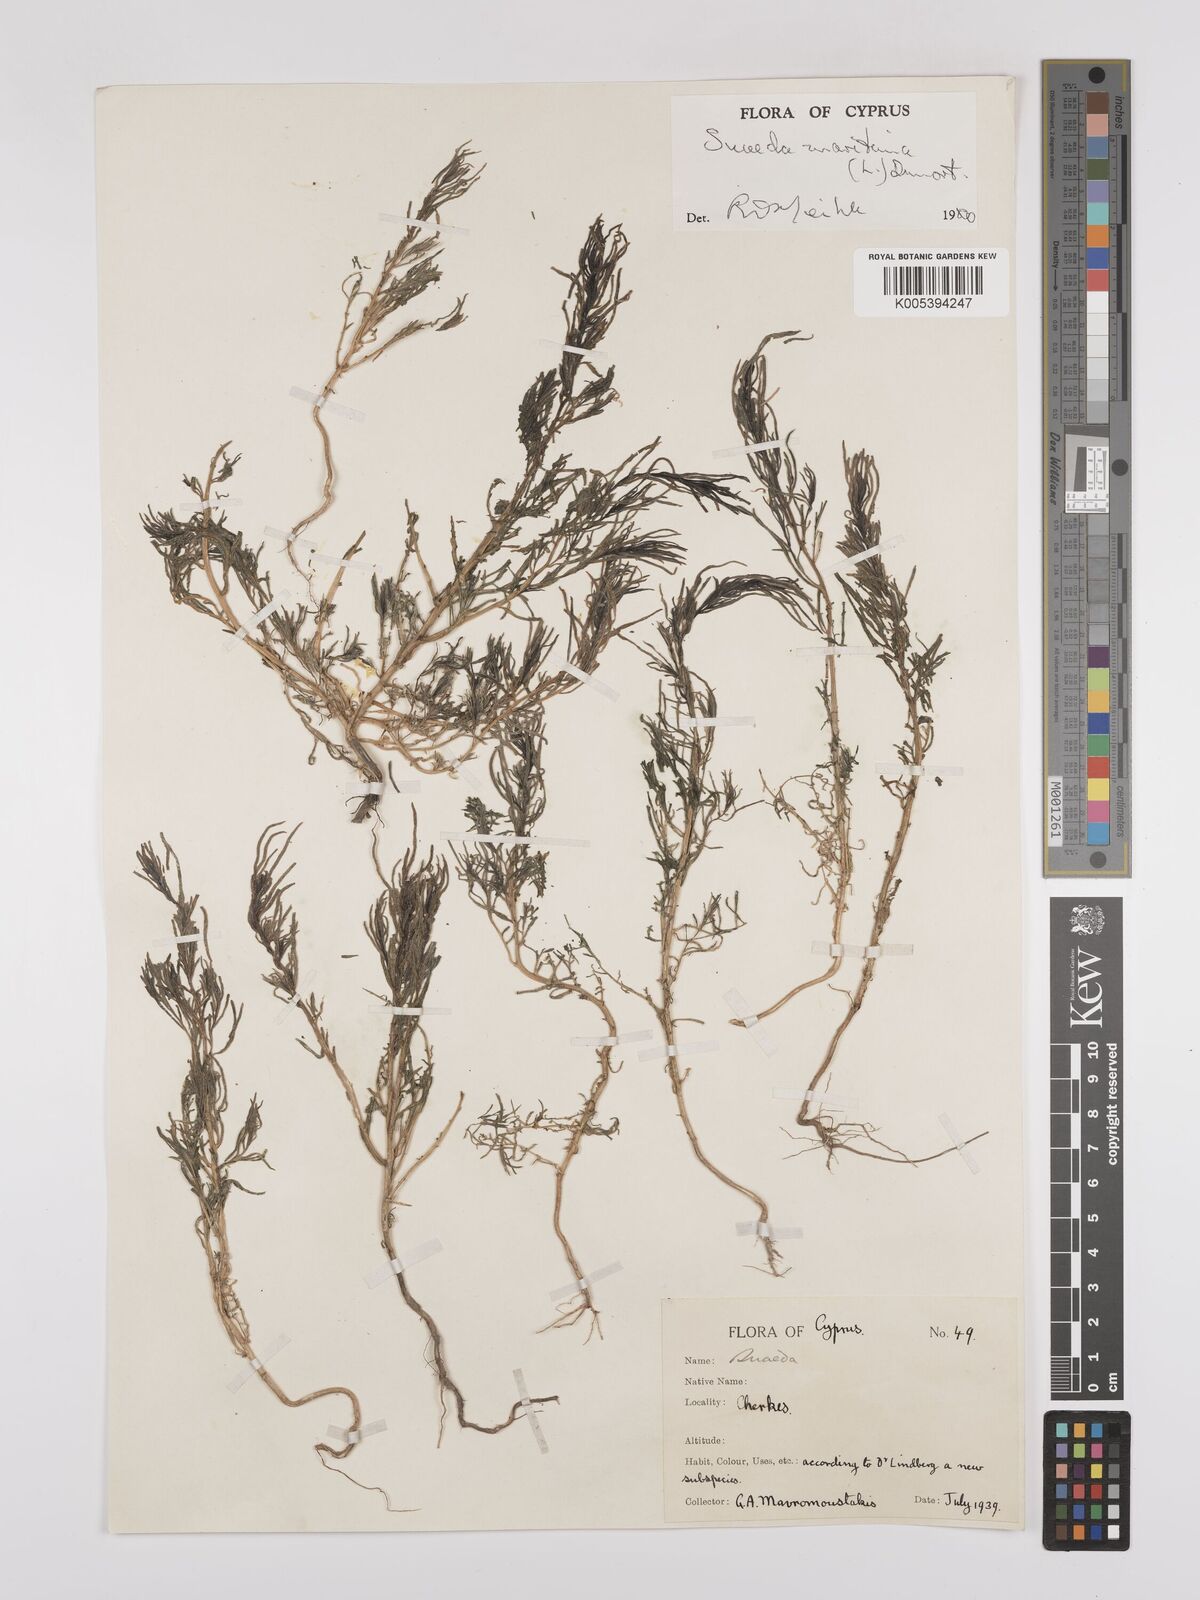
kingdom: Plantae
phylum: Tracheophyta
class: Magnoliopsida
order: Caryophyllales
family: Amaranthaceae
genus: Suaeda
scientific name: Suaeda
